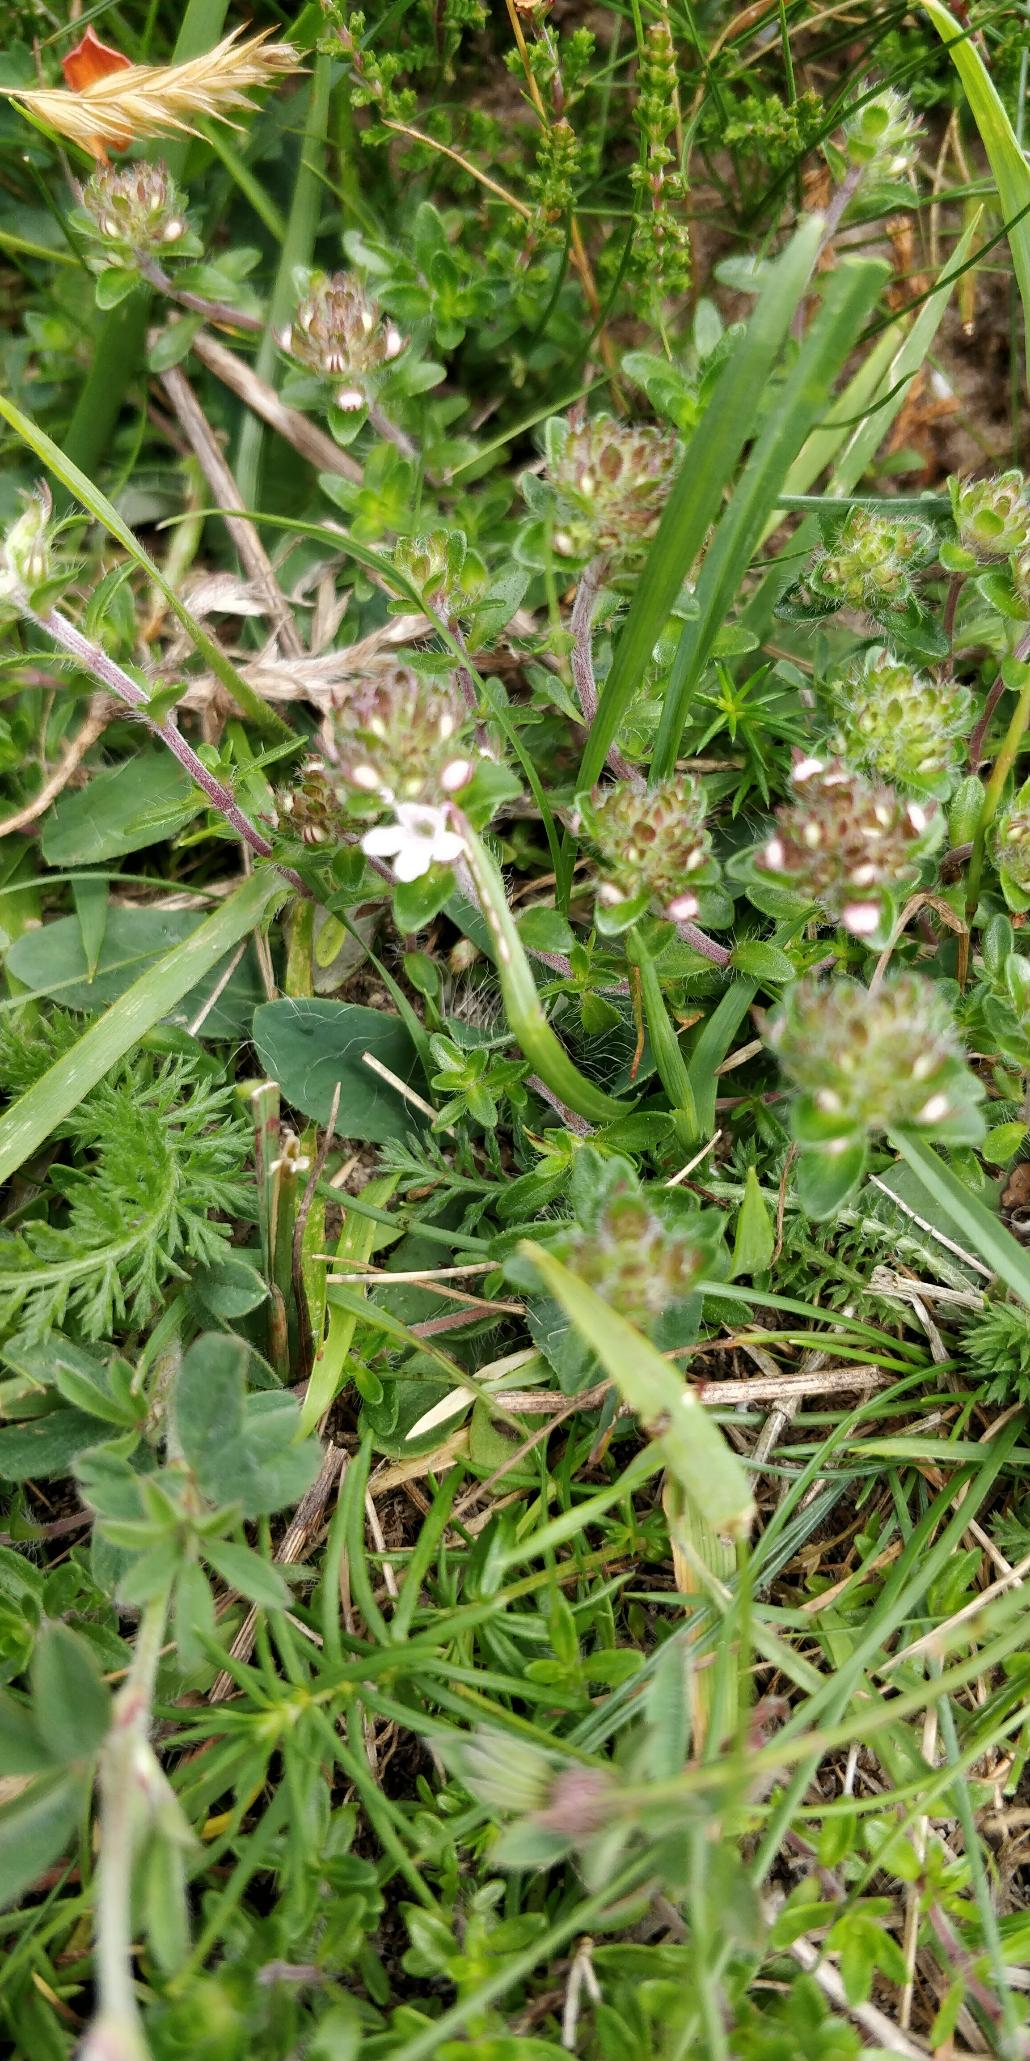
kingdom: Plantae
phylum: Tracheophyta
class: Magnoliopsida
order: Lamiales
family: Lamiaceae
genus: Thymus
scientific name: Thymus serpyllum
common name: Smalbladet timian
